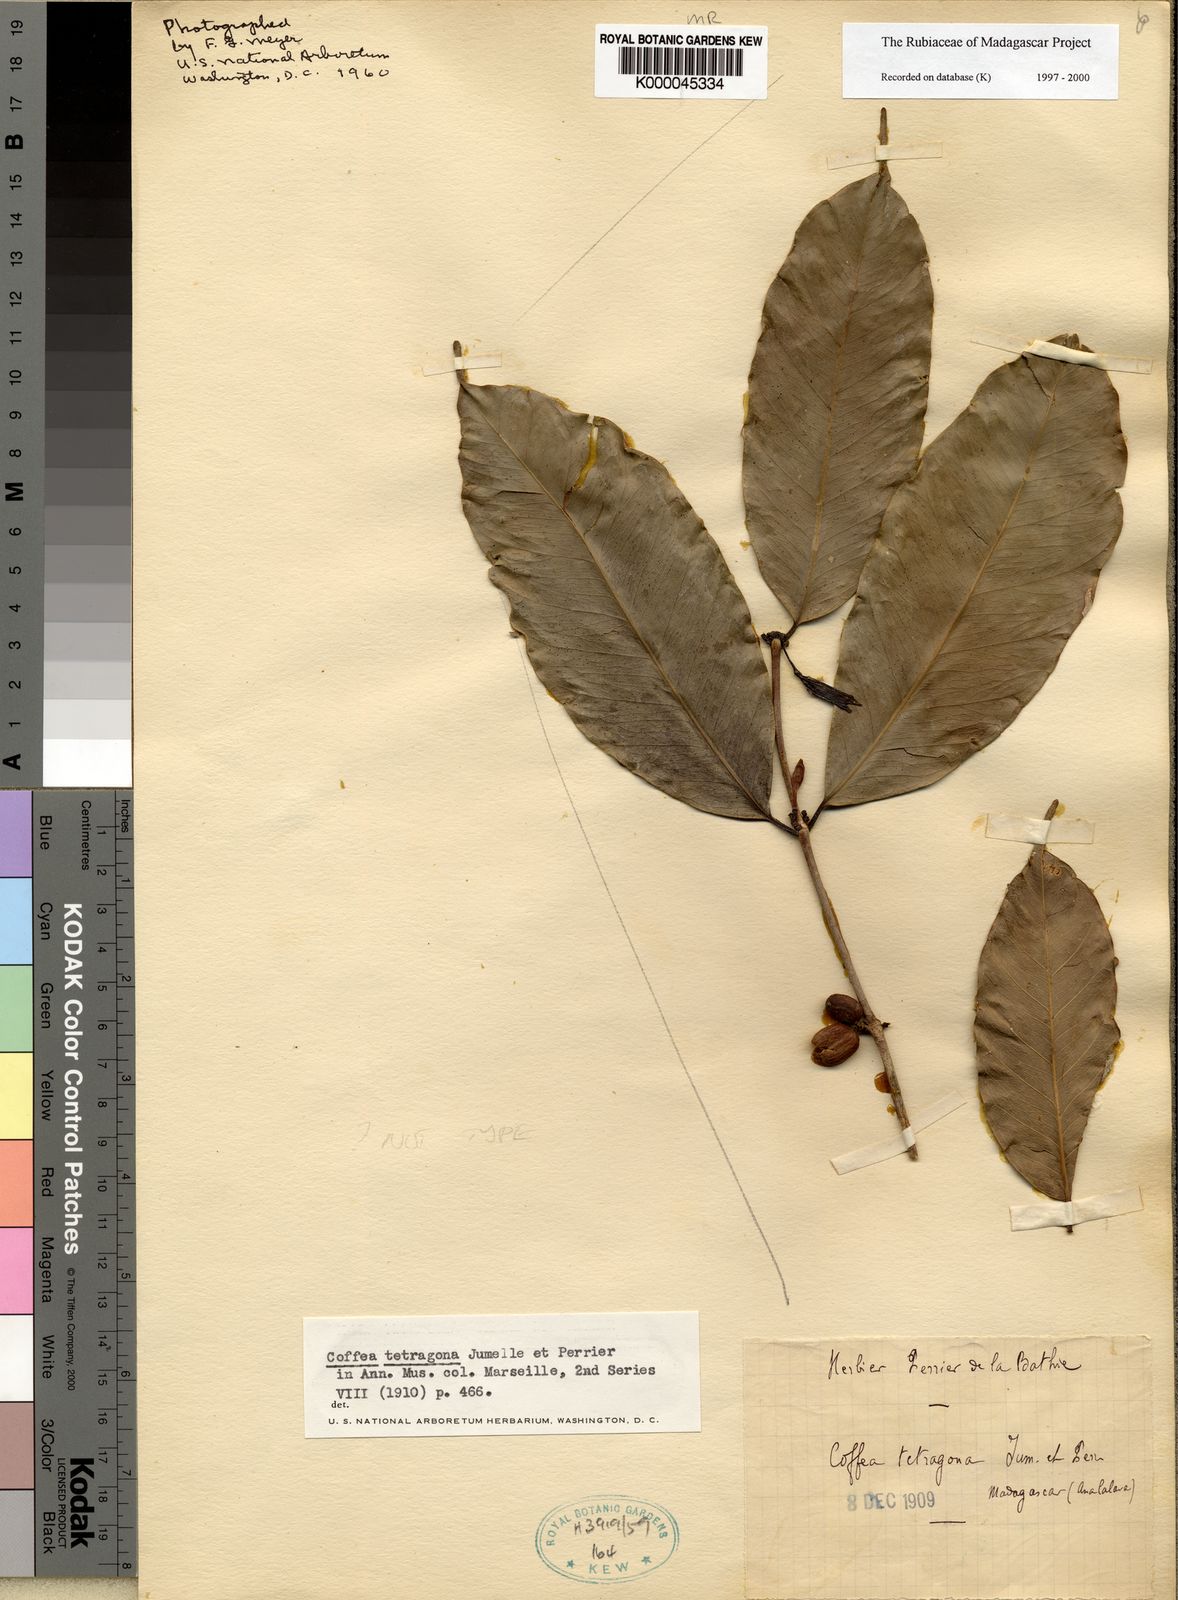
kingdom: Plantae
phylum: Tracheophyta
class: Magnoliopsida
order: Gentianales
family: Rubiaceae
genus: Coffea
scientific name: Coffea tetragona
